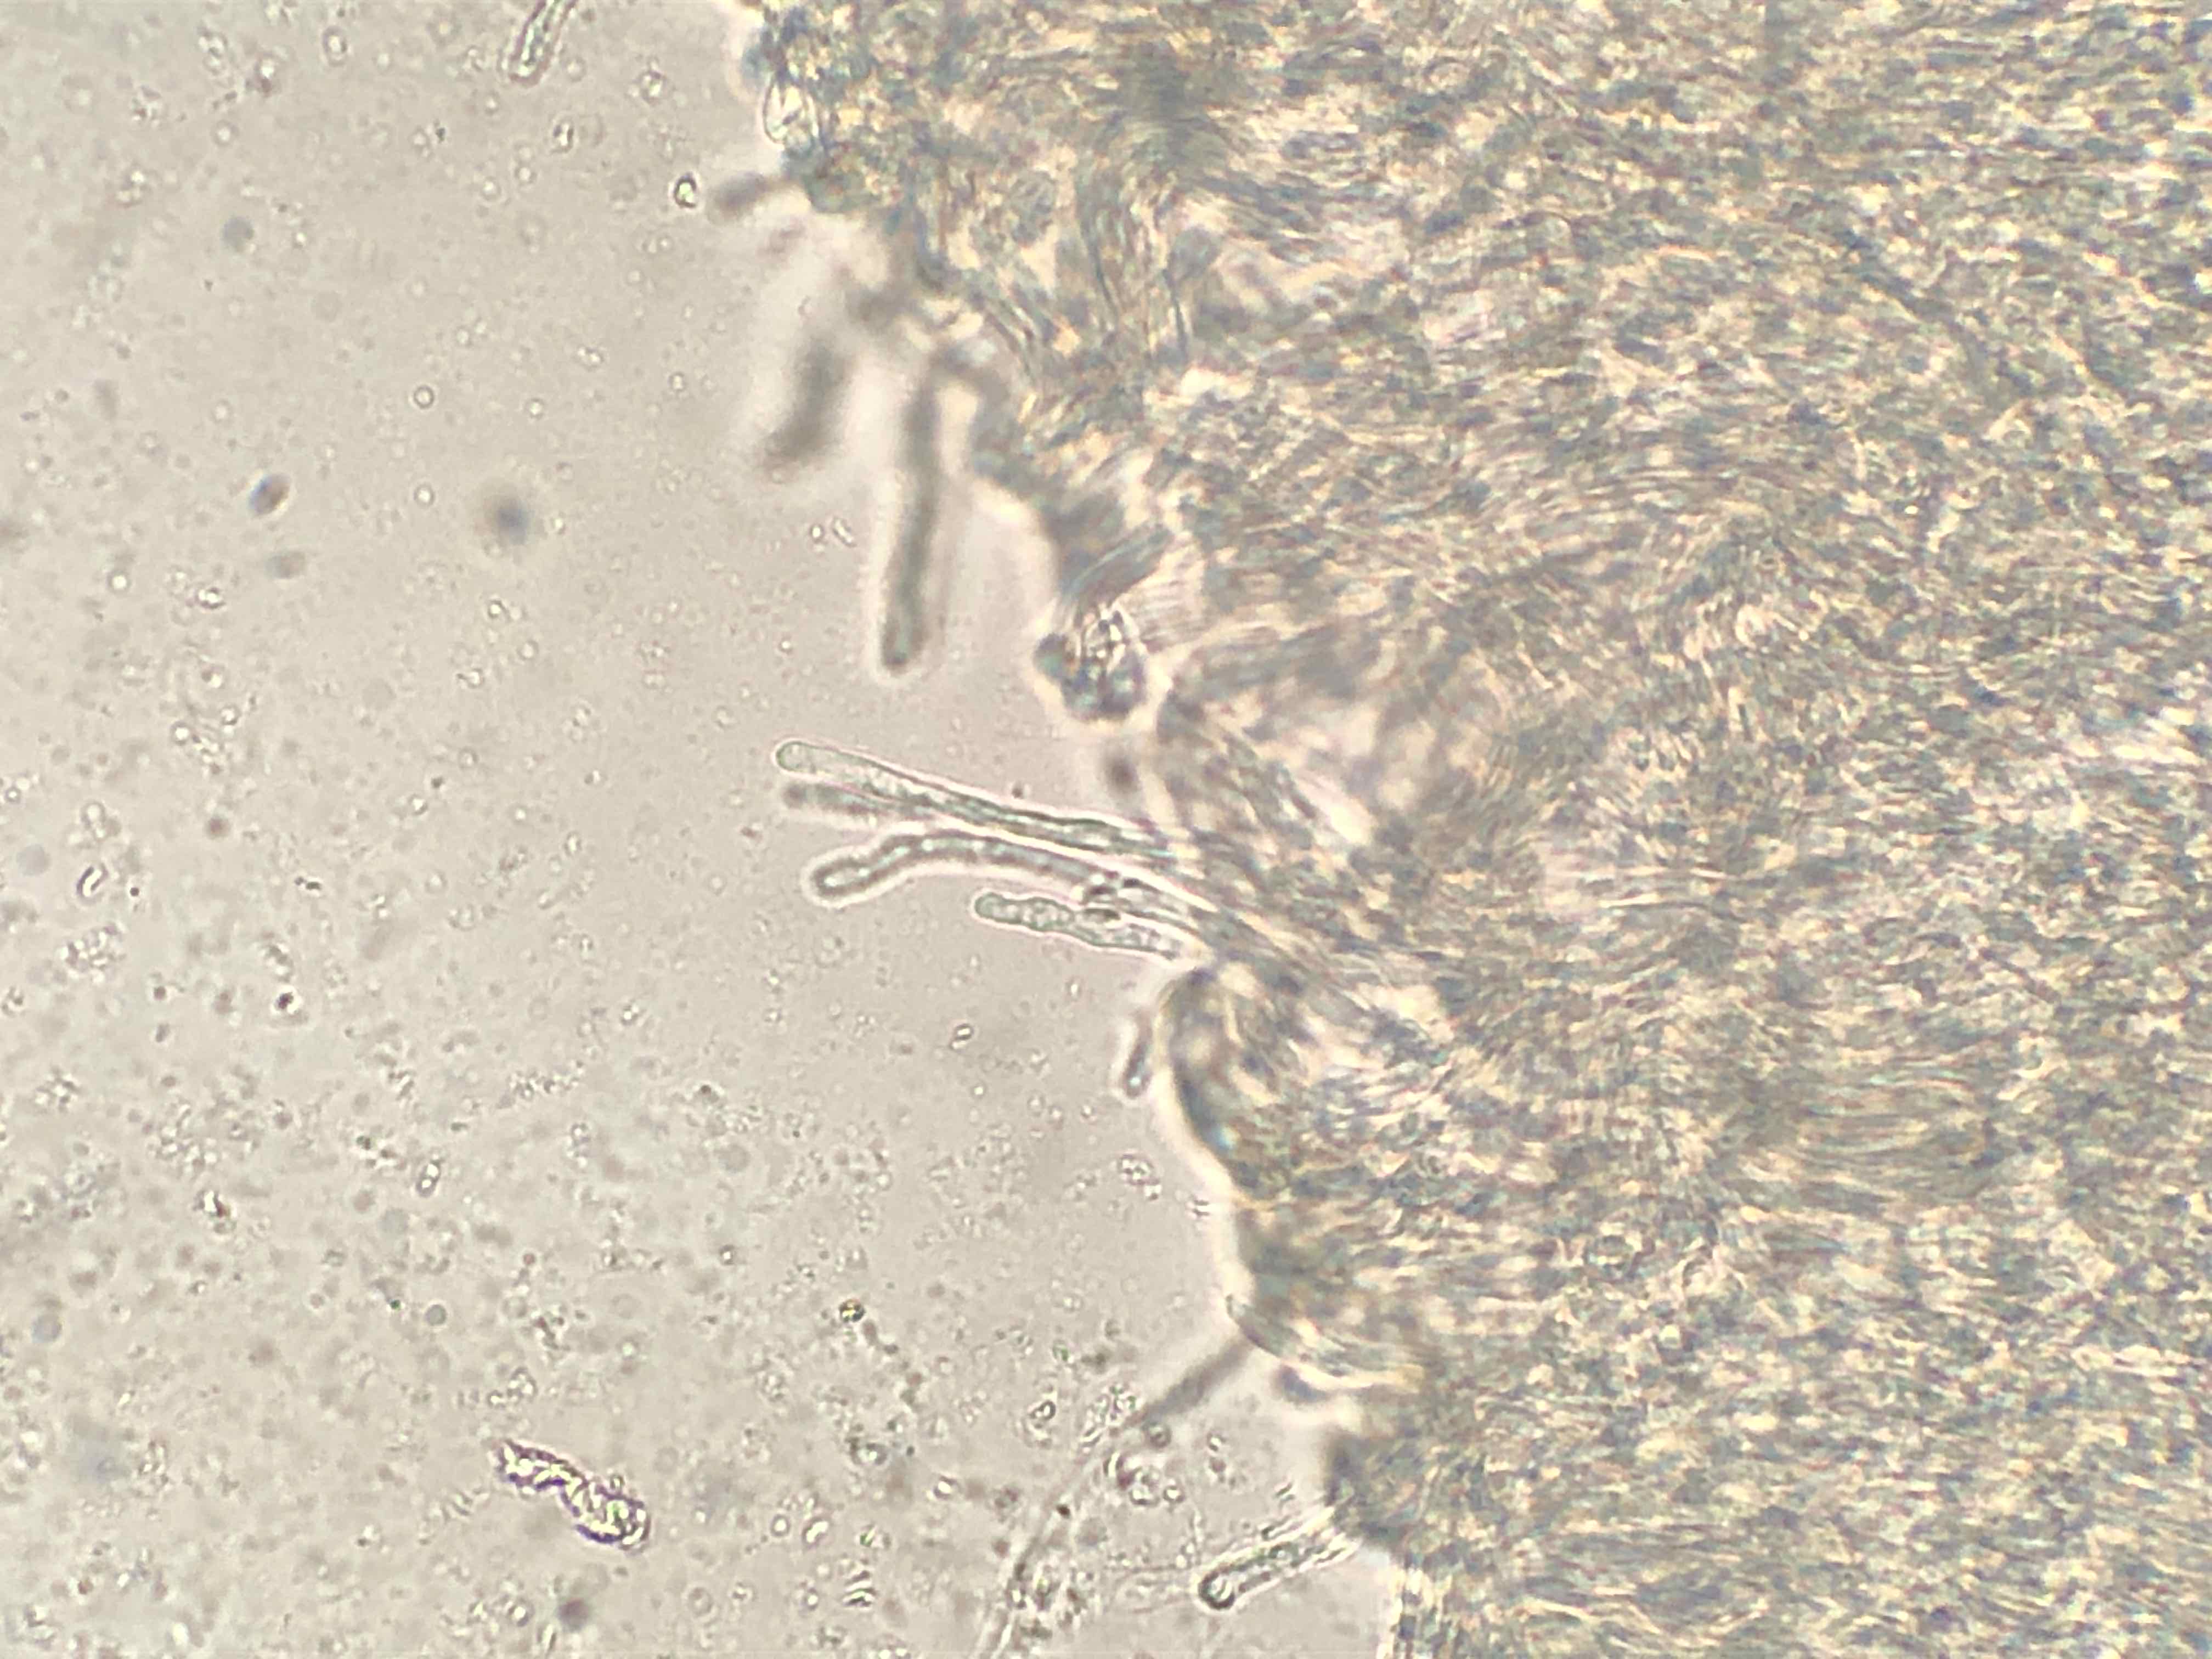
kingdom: Fungi
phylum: Basidiomycota
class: Agaricomycetes
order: Agaricales
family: Tricholomataceae
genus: Clitocybe
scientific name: Clitocybe agrestis
